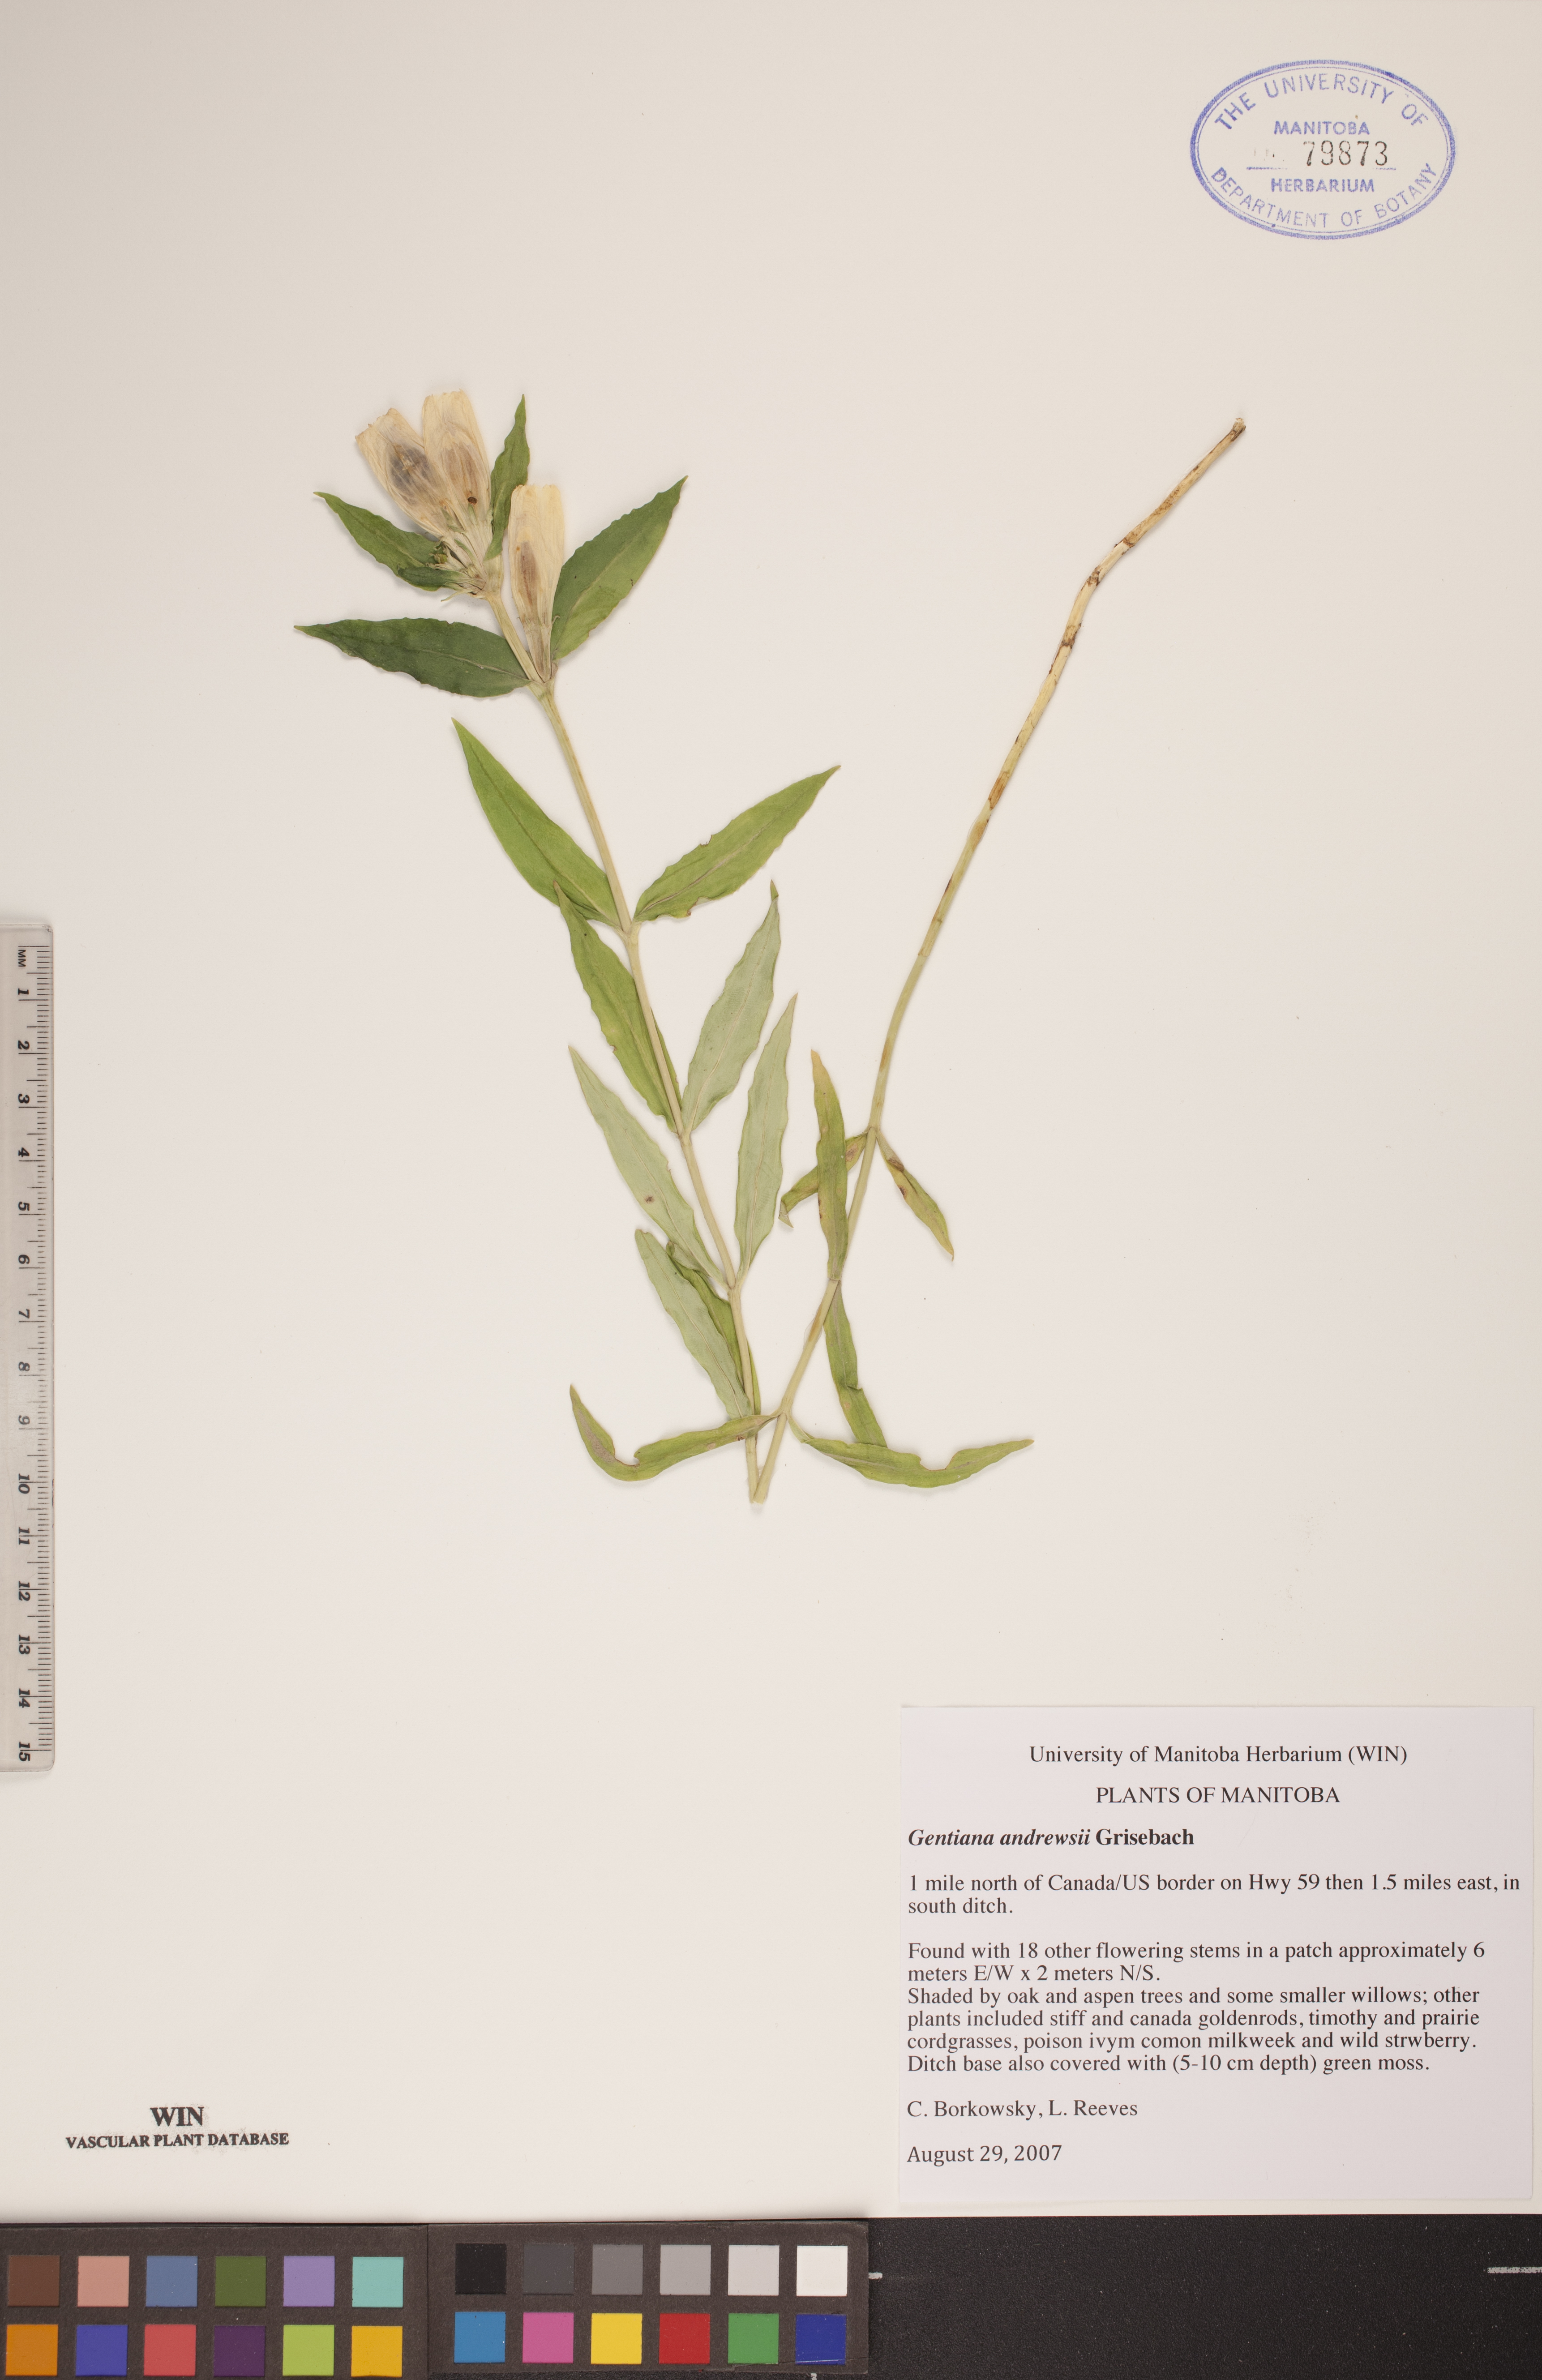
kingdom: Plantae
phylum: Tracheophyta
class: Magnoliopsida
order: Gentianales
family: Gentianaceae
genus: Gentiana
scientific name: Gentiana andrewsii
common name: Bottle gentian
